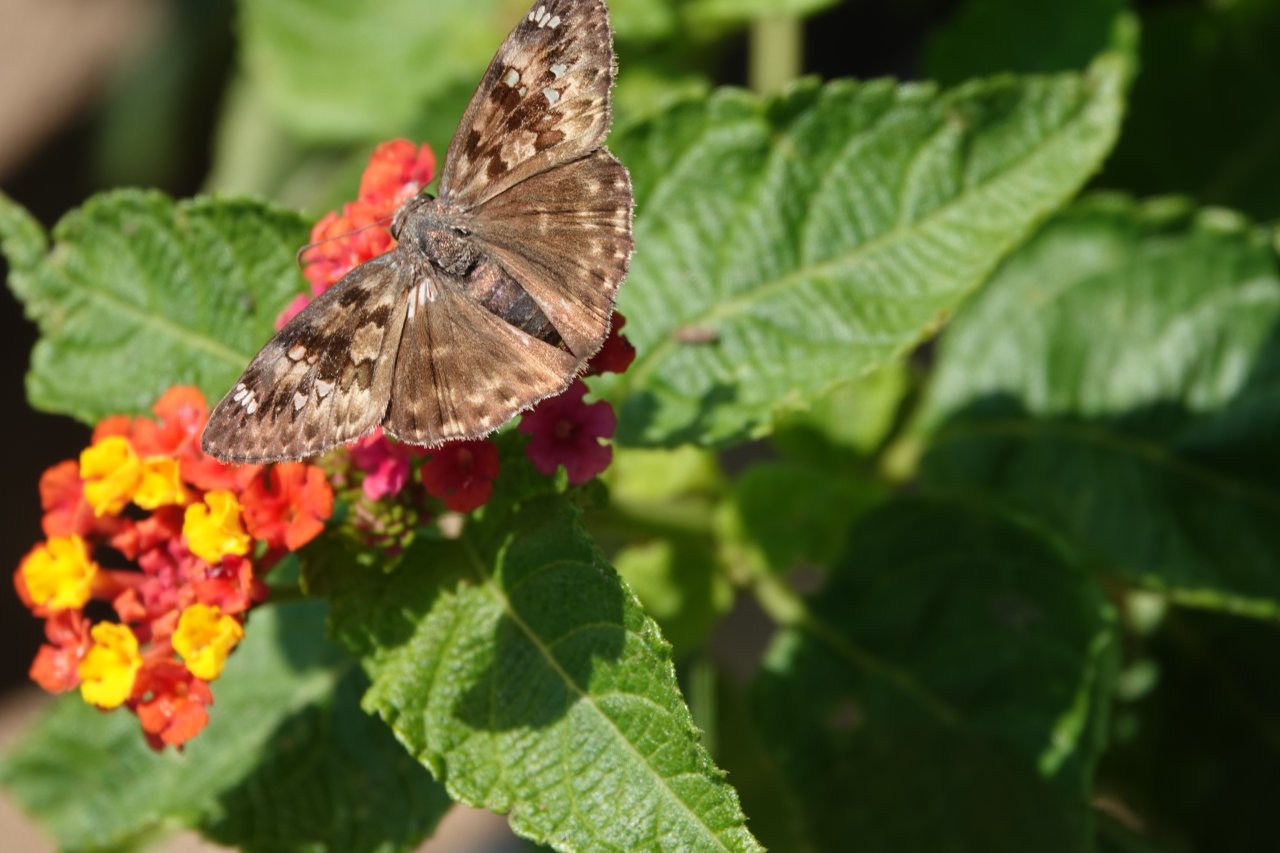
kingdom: Animalia
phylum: Arthropoda
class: Insecta
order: Lepidoptera
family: Hesperiidae
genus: Gesta
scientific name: Gesta
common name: Horace's Duskywing
